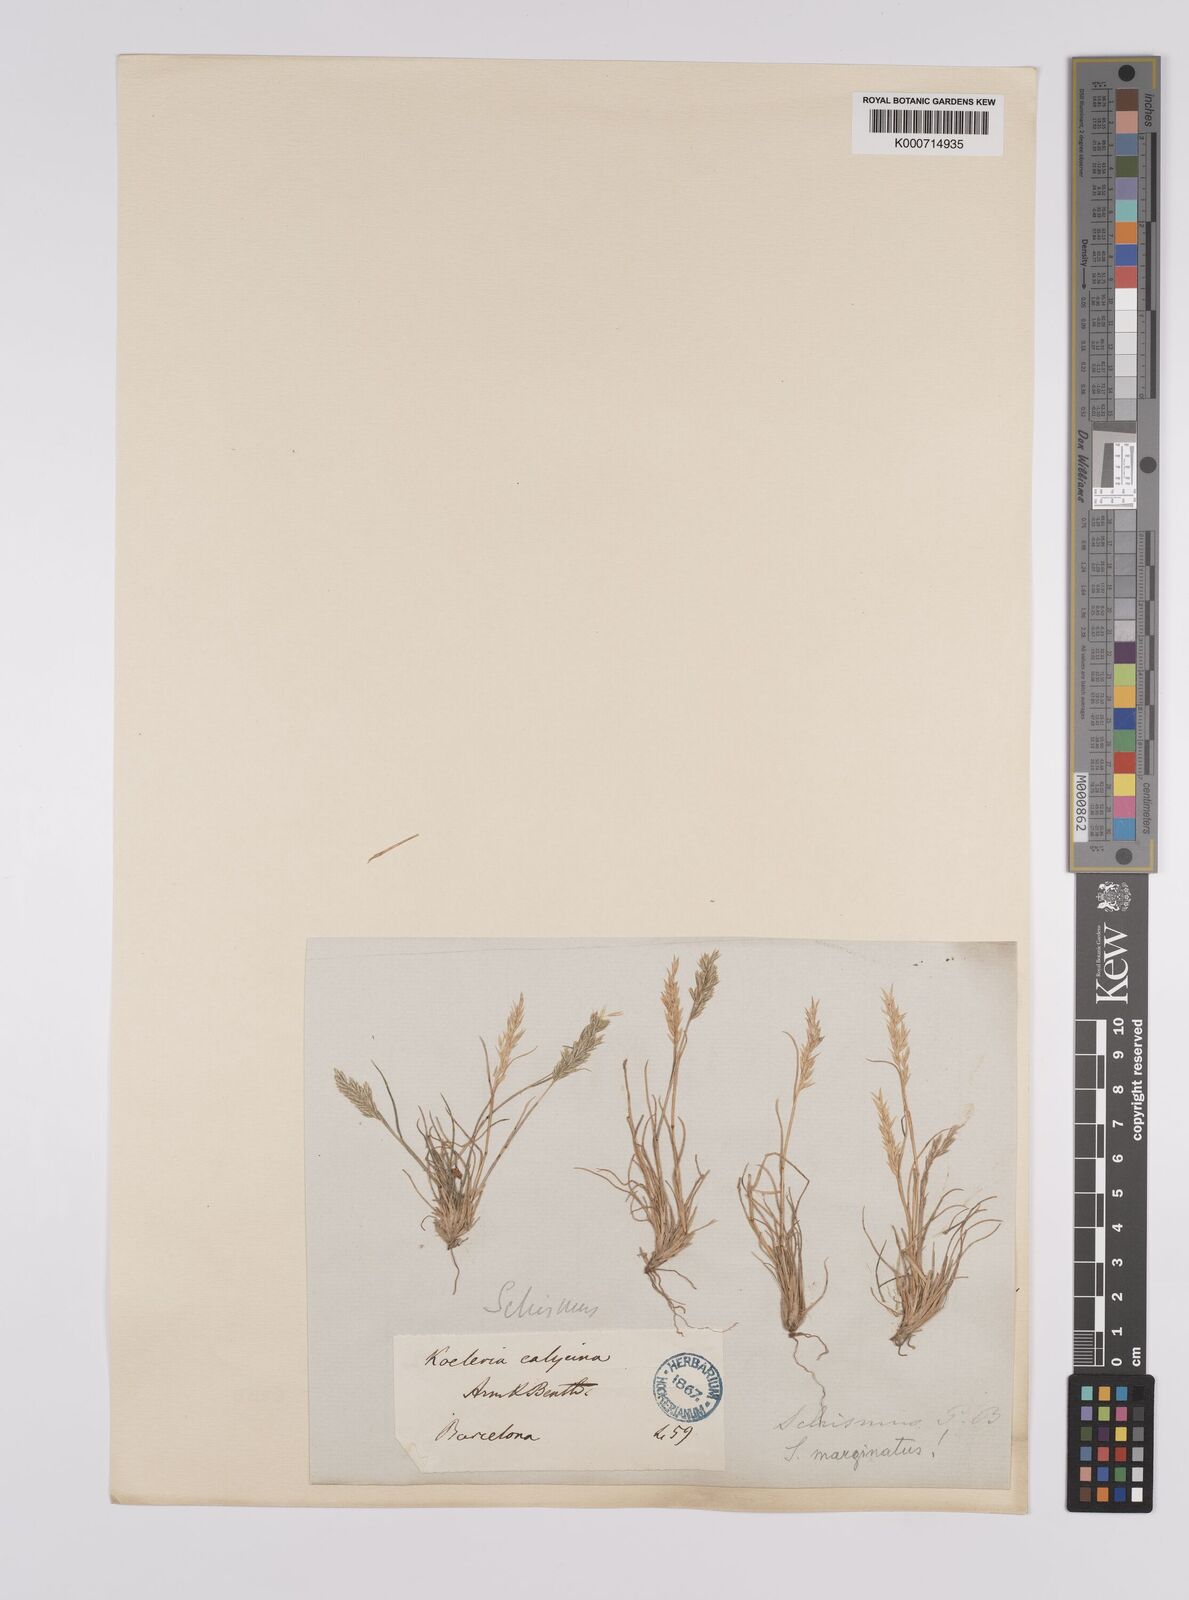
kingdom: Plantae
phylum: Tracheophyta
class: Liliopsida
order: Poales
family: Poaceae
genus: Schismus
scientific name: Schismus barbatus
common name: Kelch-grass
